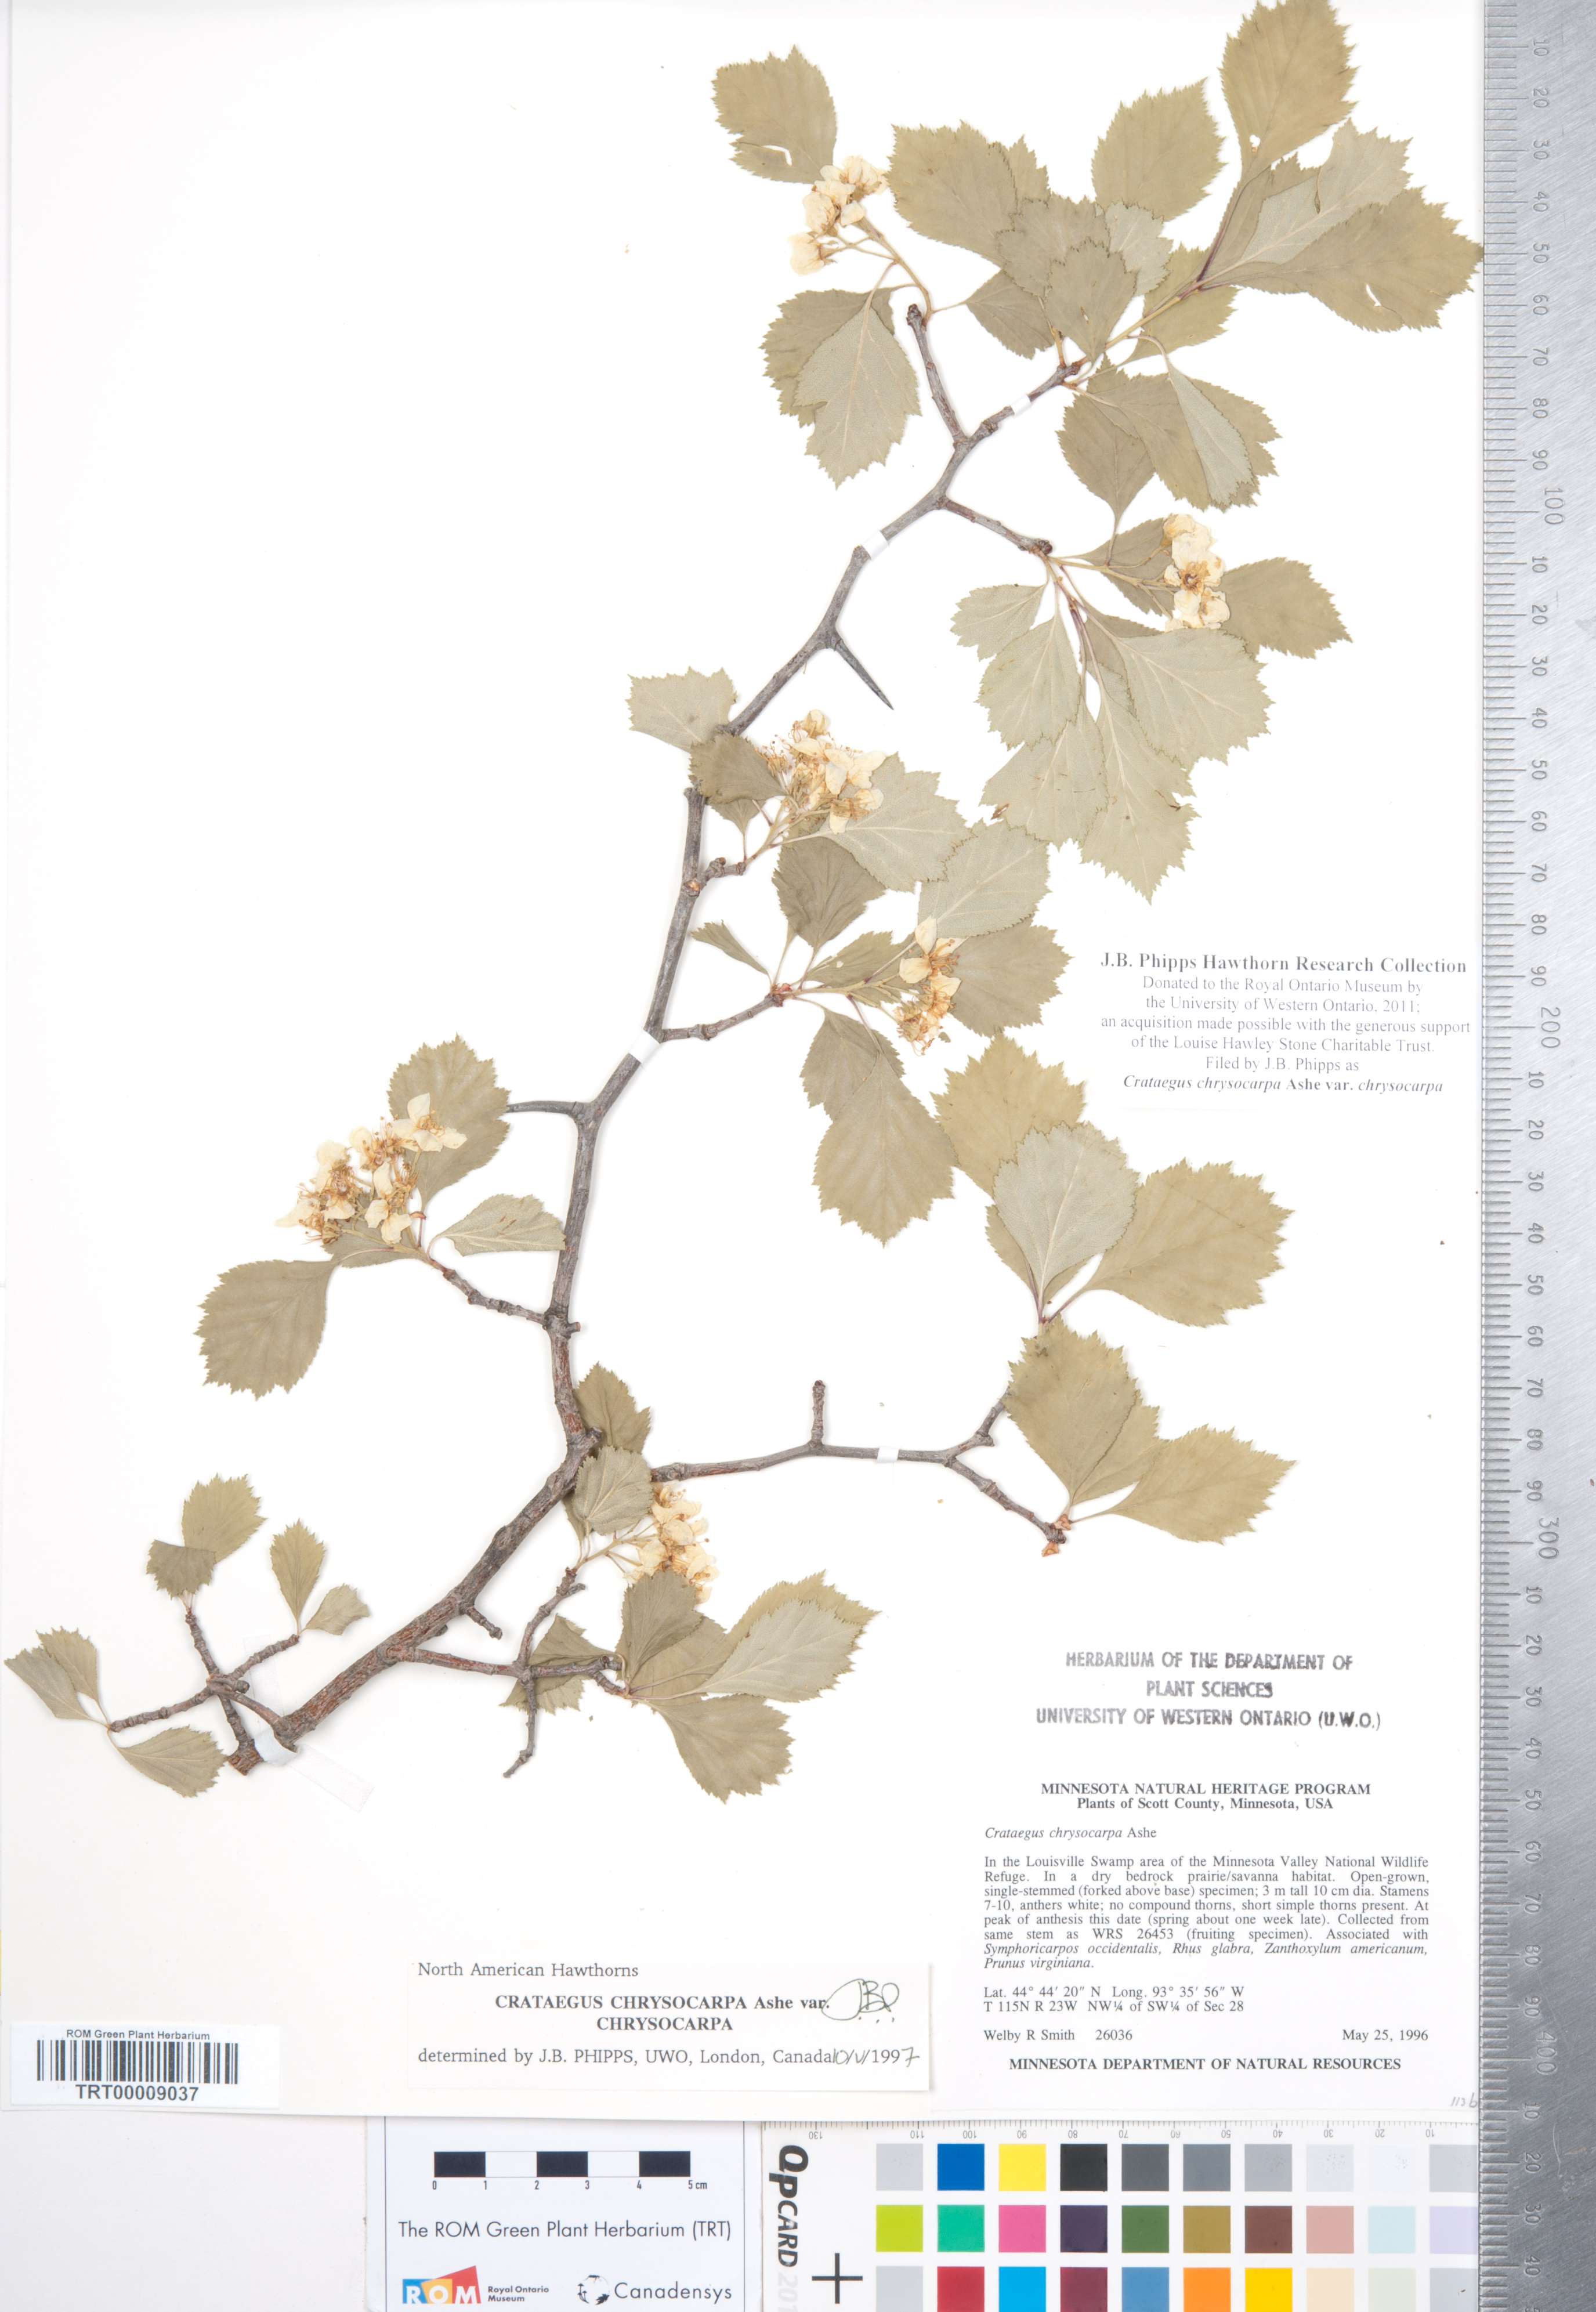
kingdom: Plantae
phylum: Tracheophyta
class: Magnoliopsida
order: Rosales
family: Rosaceae
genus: Crataegus
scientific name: Crataegus chrysocarpa
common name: Fire-berry hawthorn
